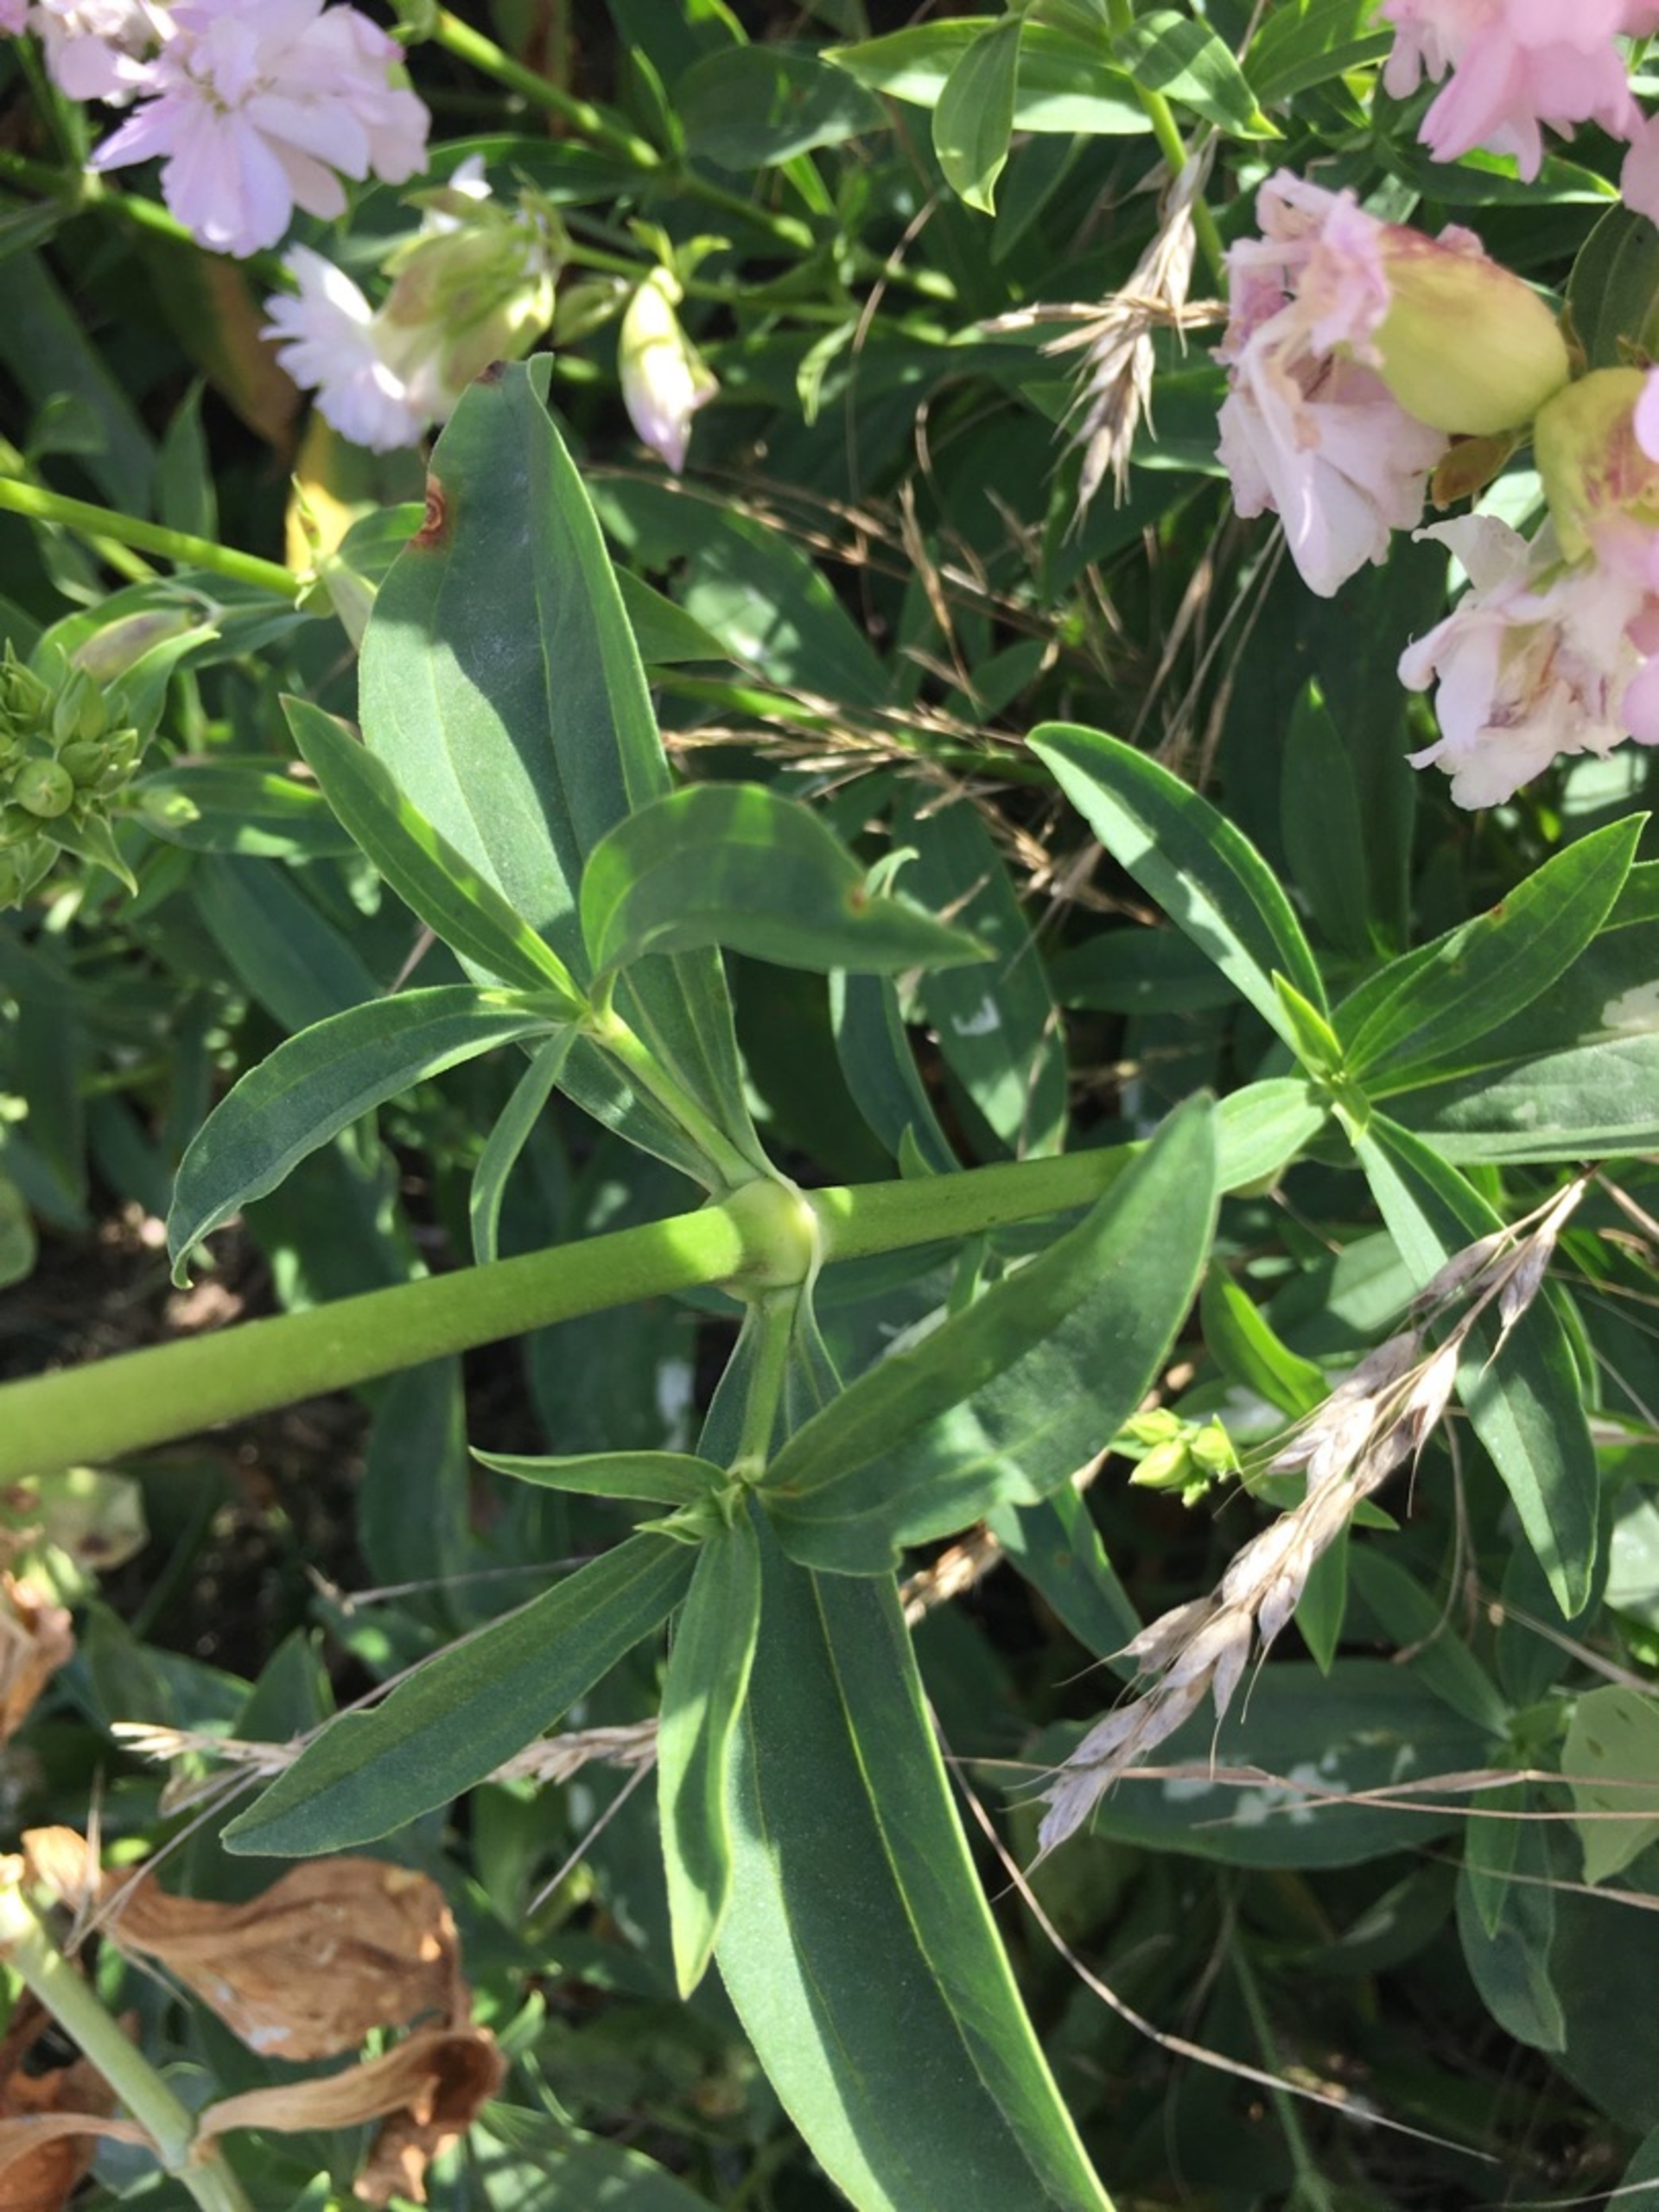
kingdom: Plantae
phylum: Tracheophyta
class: Magnoliopsida
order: Caryophyllales
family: Caryophyllaceae
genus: Saponaria
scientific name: Saponaria officinalis
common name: Sæbeurt
